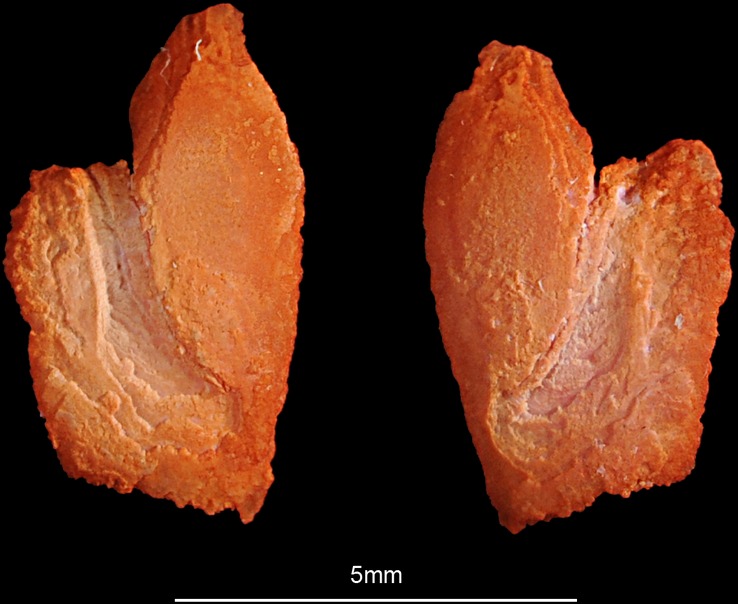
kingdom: Animalia
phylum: Chordata
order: Perciformes
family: Sparidae
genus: Rhabdosargus
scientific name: Rhabdosargus sarba
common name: Goldlined seabream
